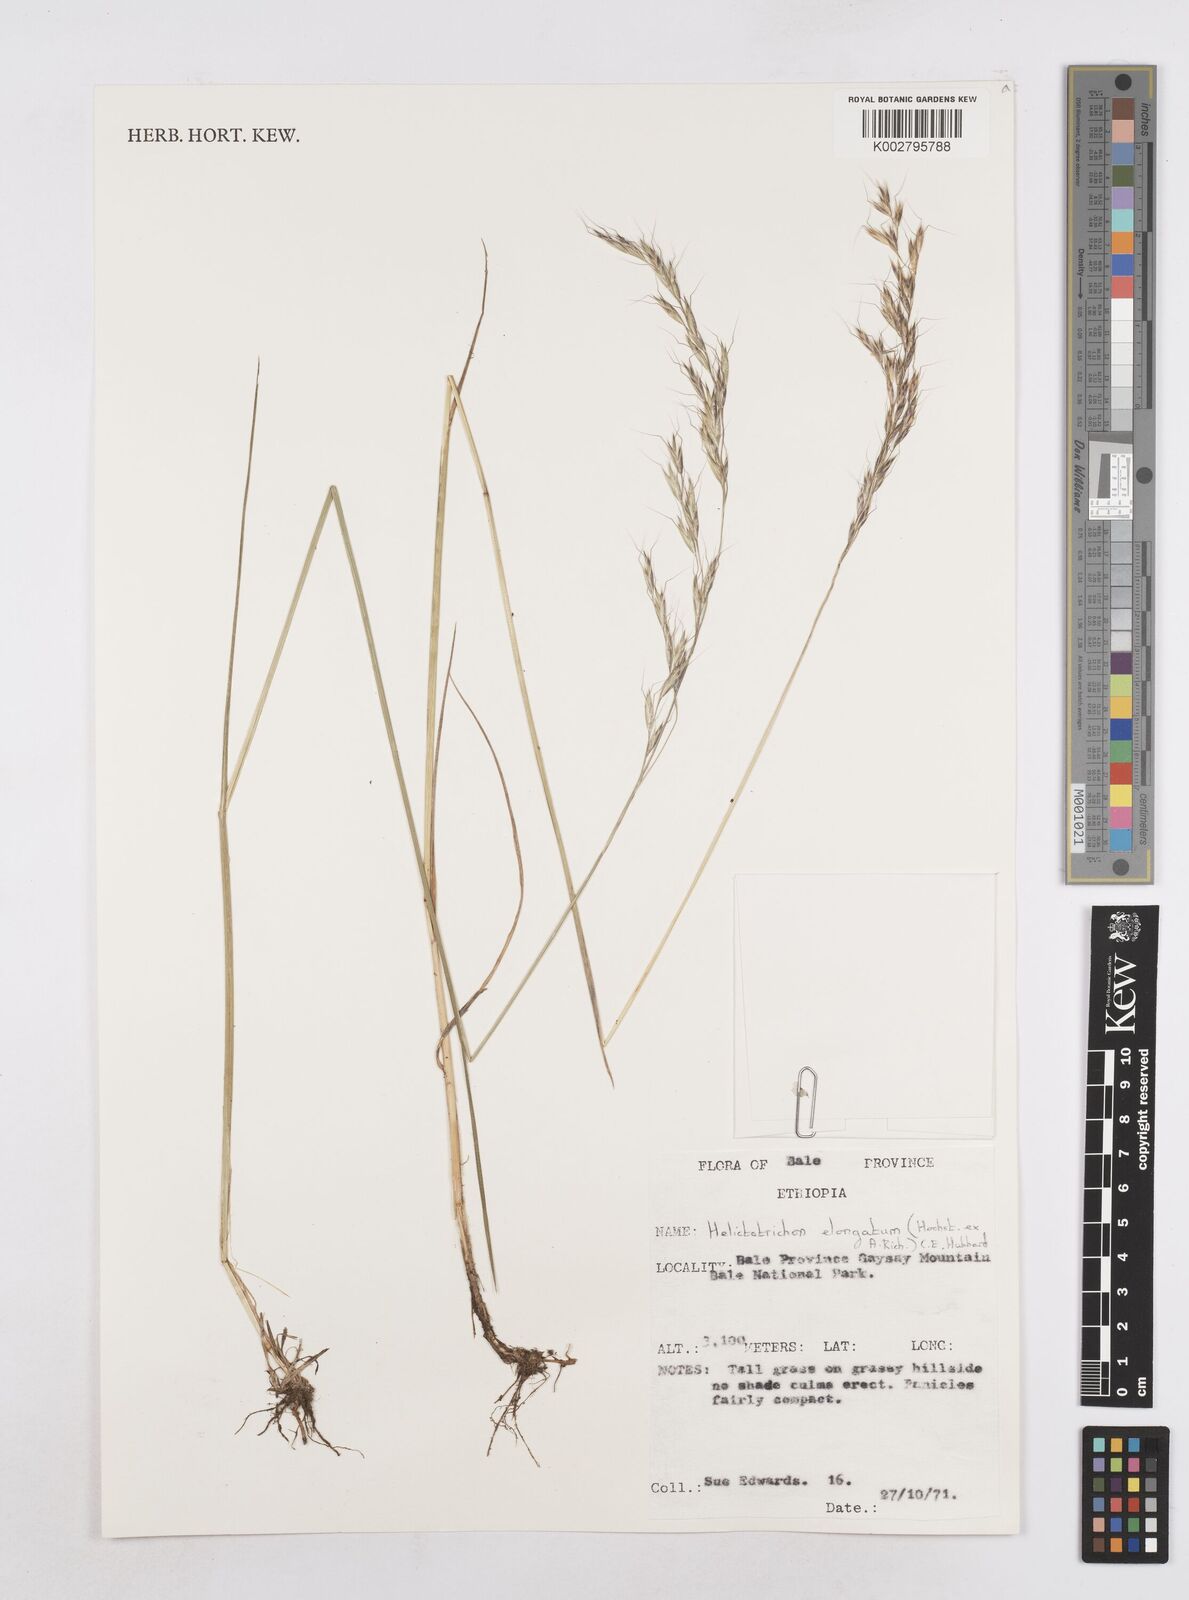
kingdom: Plantae
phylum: Tracheophyta
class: Liliopsida
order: Poales
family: Poaceae
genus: Trisetopsis
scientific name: Trisetopsis elongata
